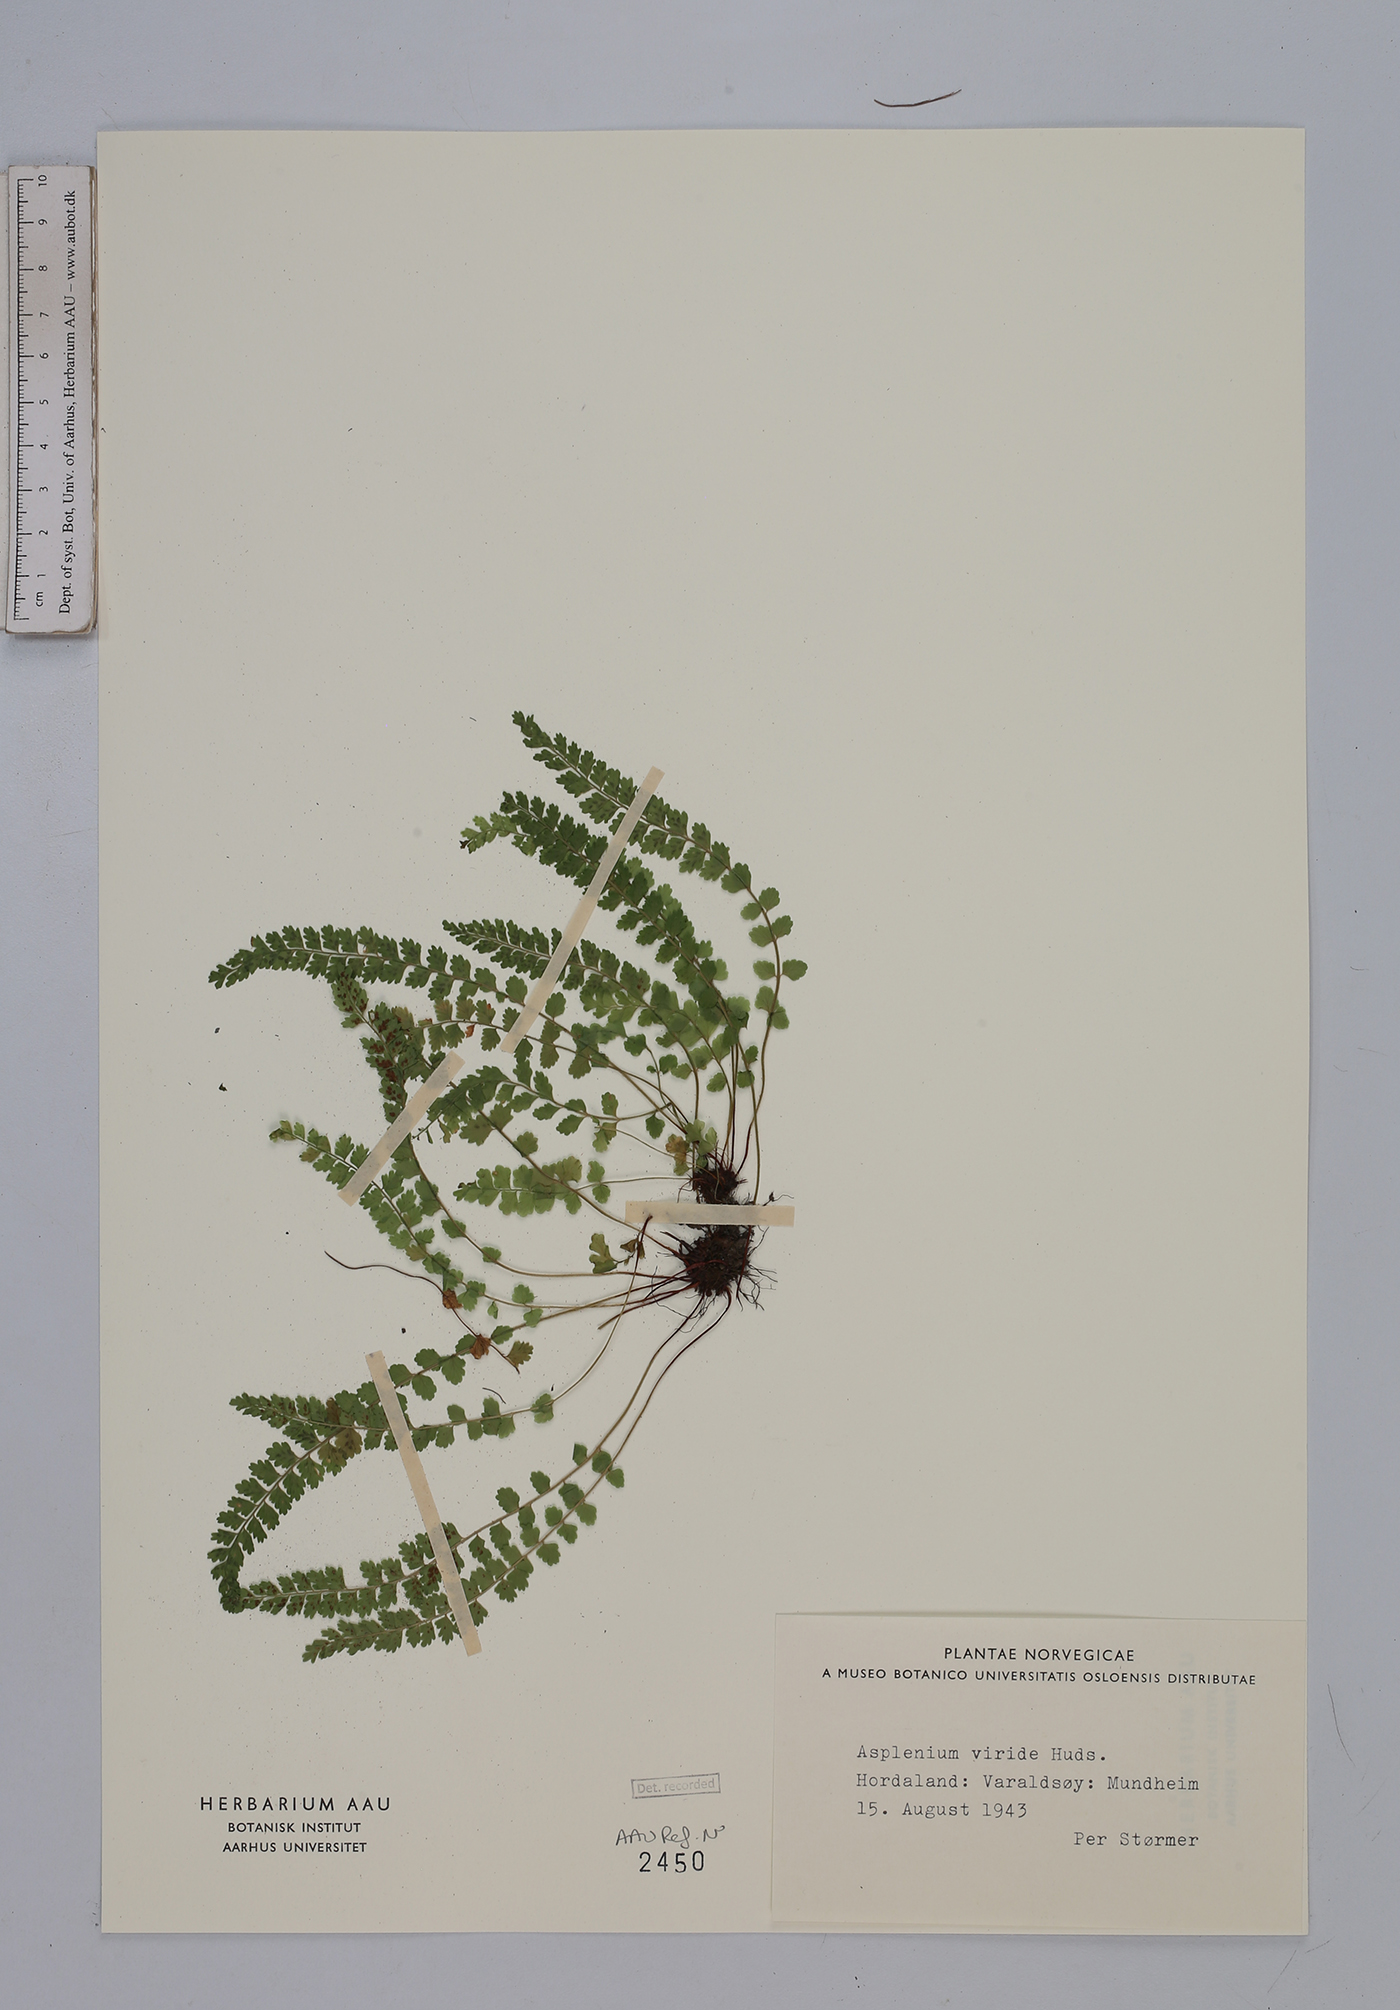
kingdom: Plantae
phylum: Tracheophyta
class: Polypodiopsida
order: Polypodiales
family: Aspleniaceae
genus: Asplenium
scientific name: Asplenium viride
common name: Green spleenwort
